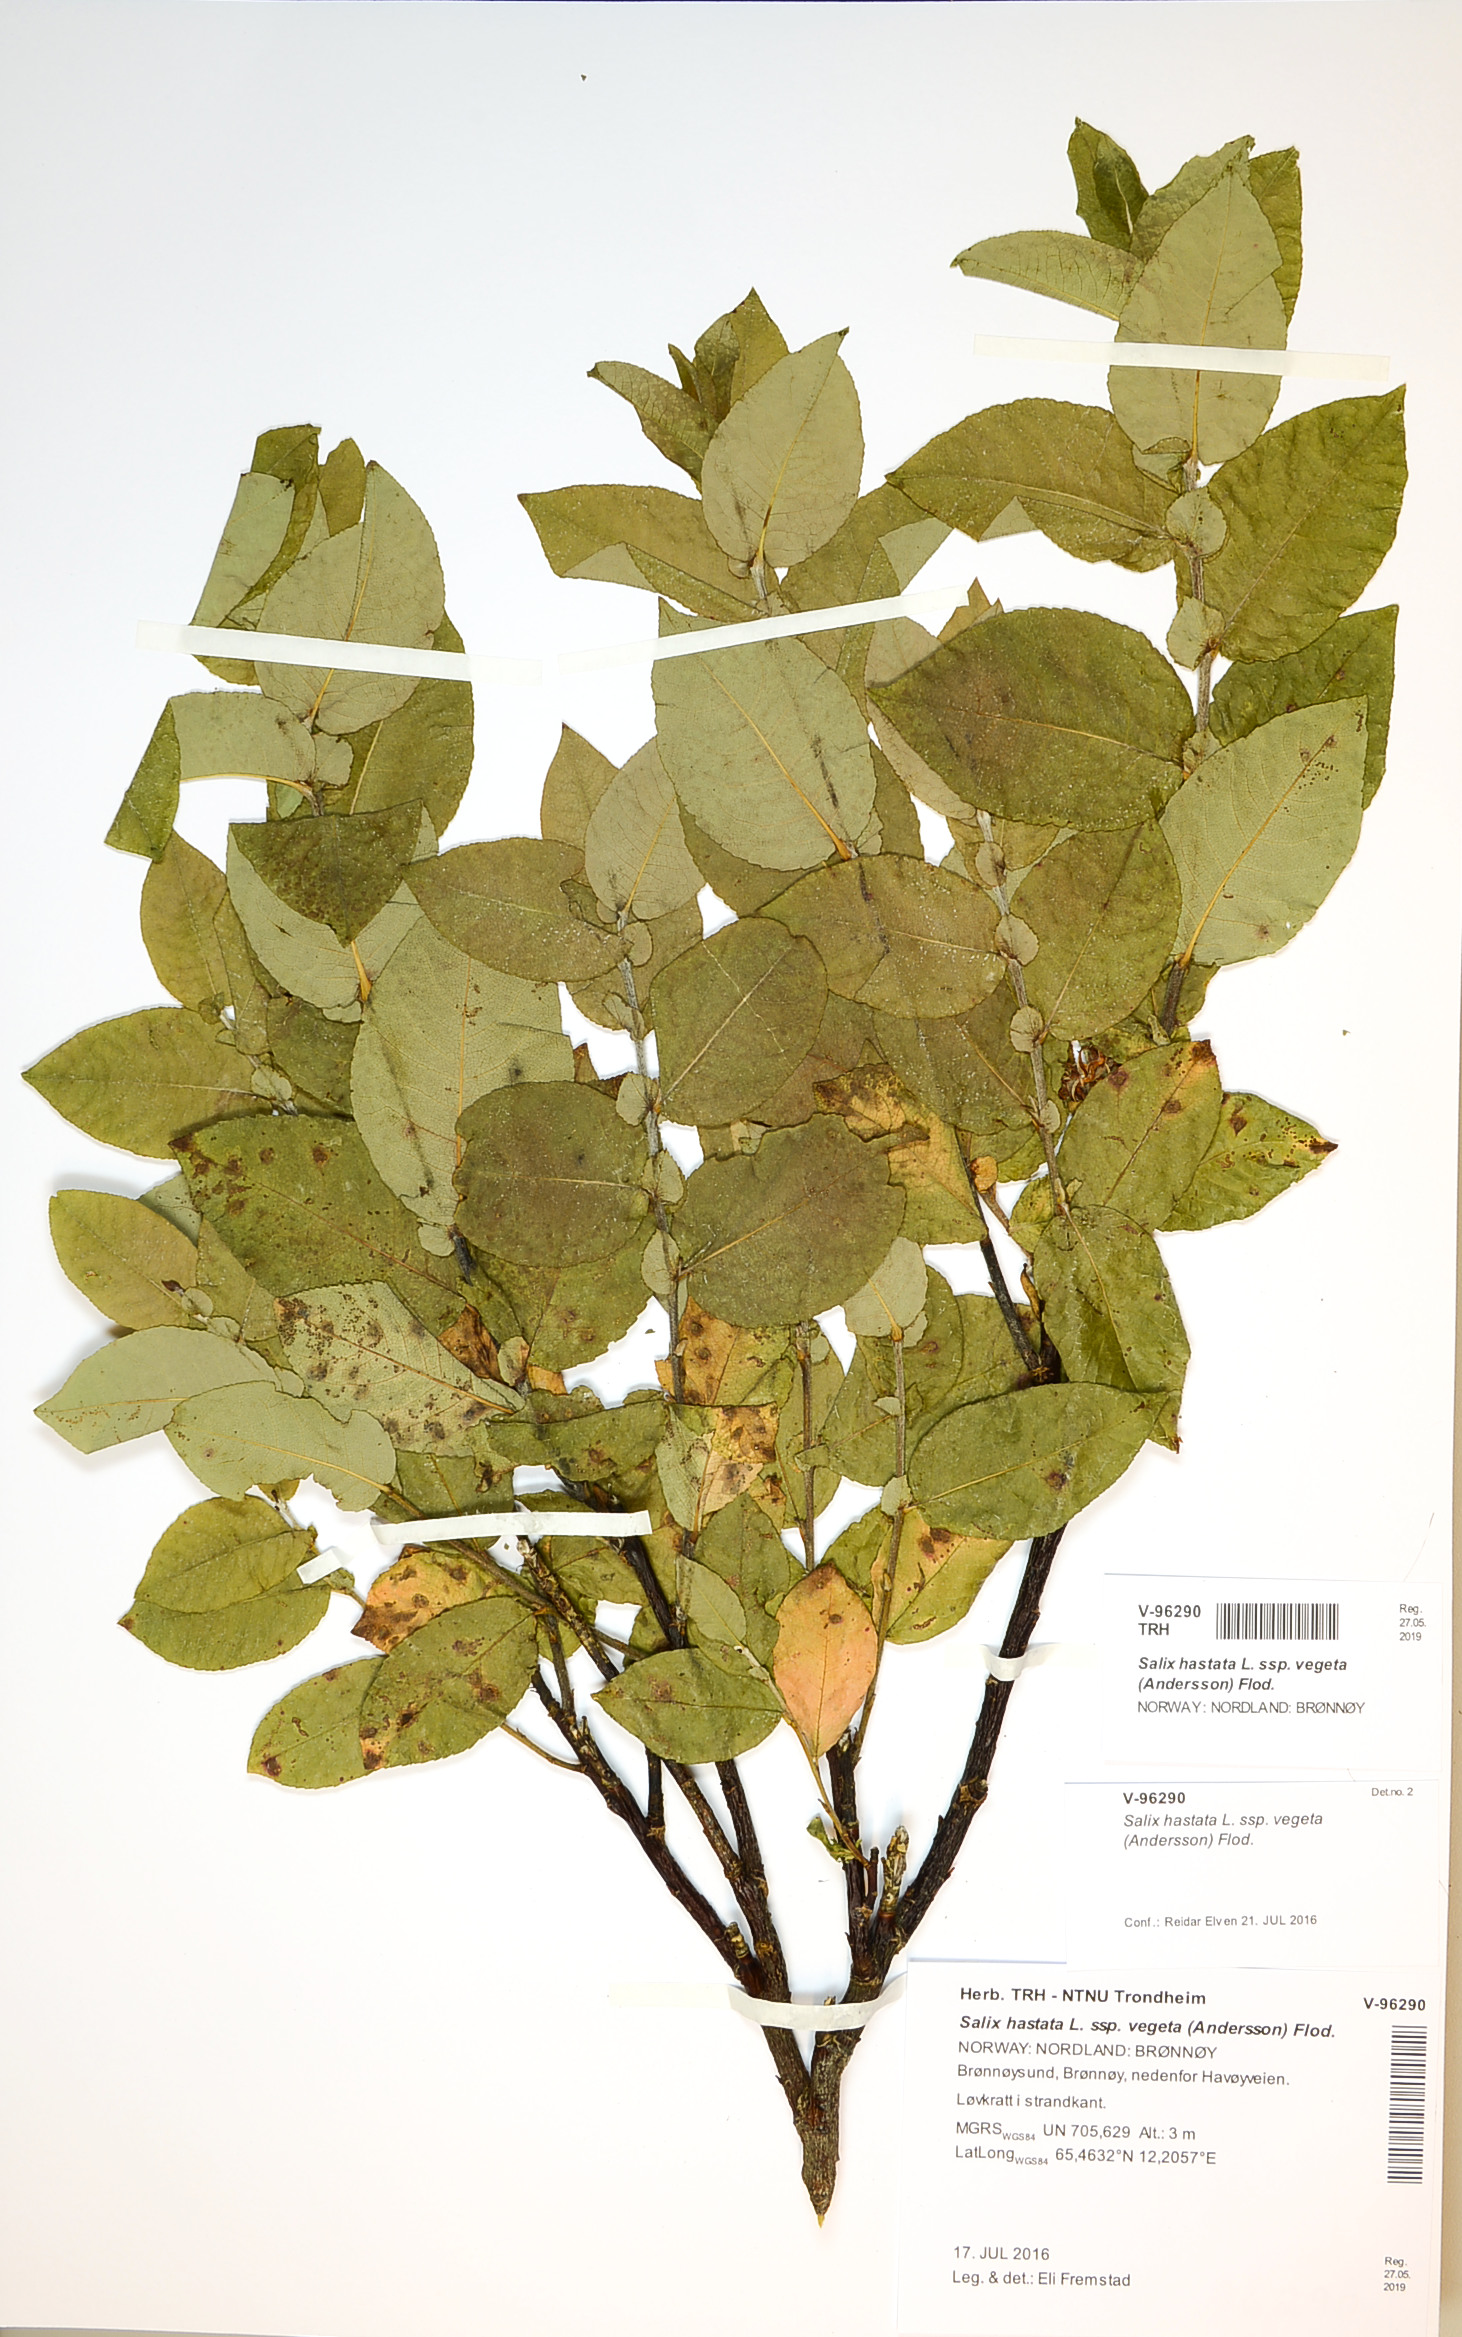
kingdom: Plantae
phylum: Tracheophyta
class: Magnoliopsida
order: Malpighiales
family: Salicaceae
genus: Salix
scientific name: Salix hastata
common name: Halberd willow
